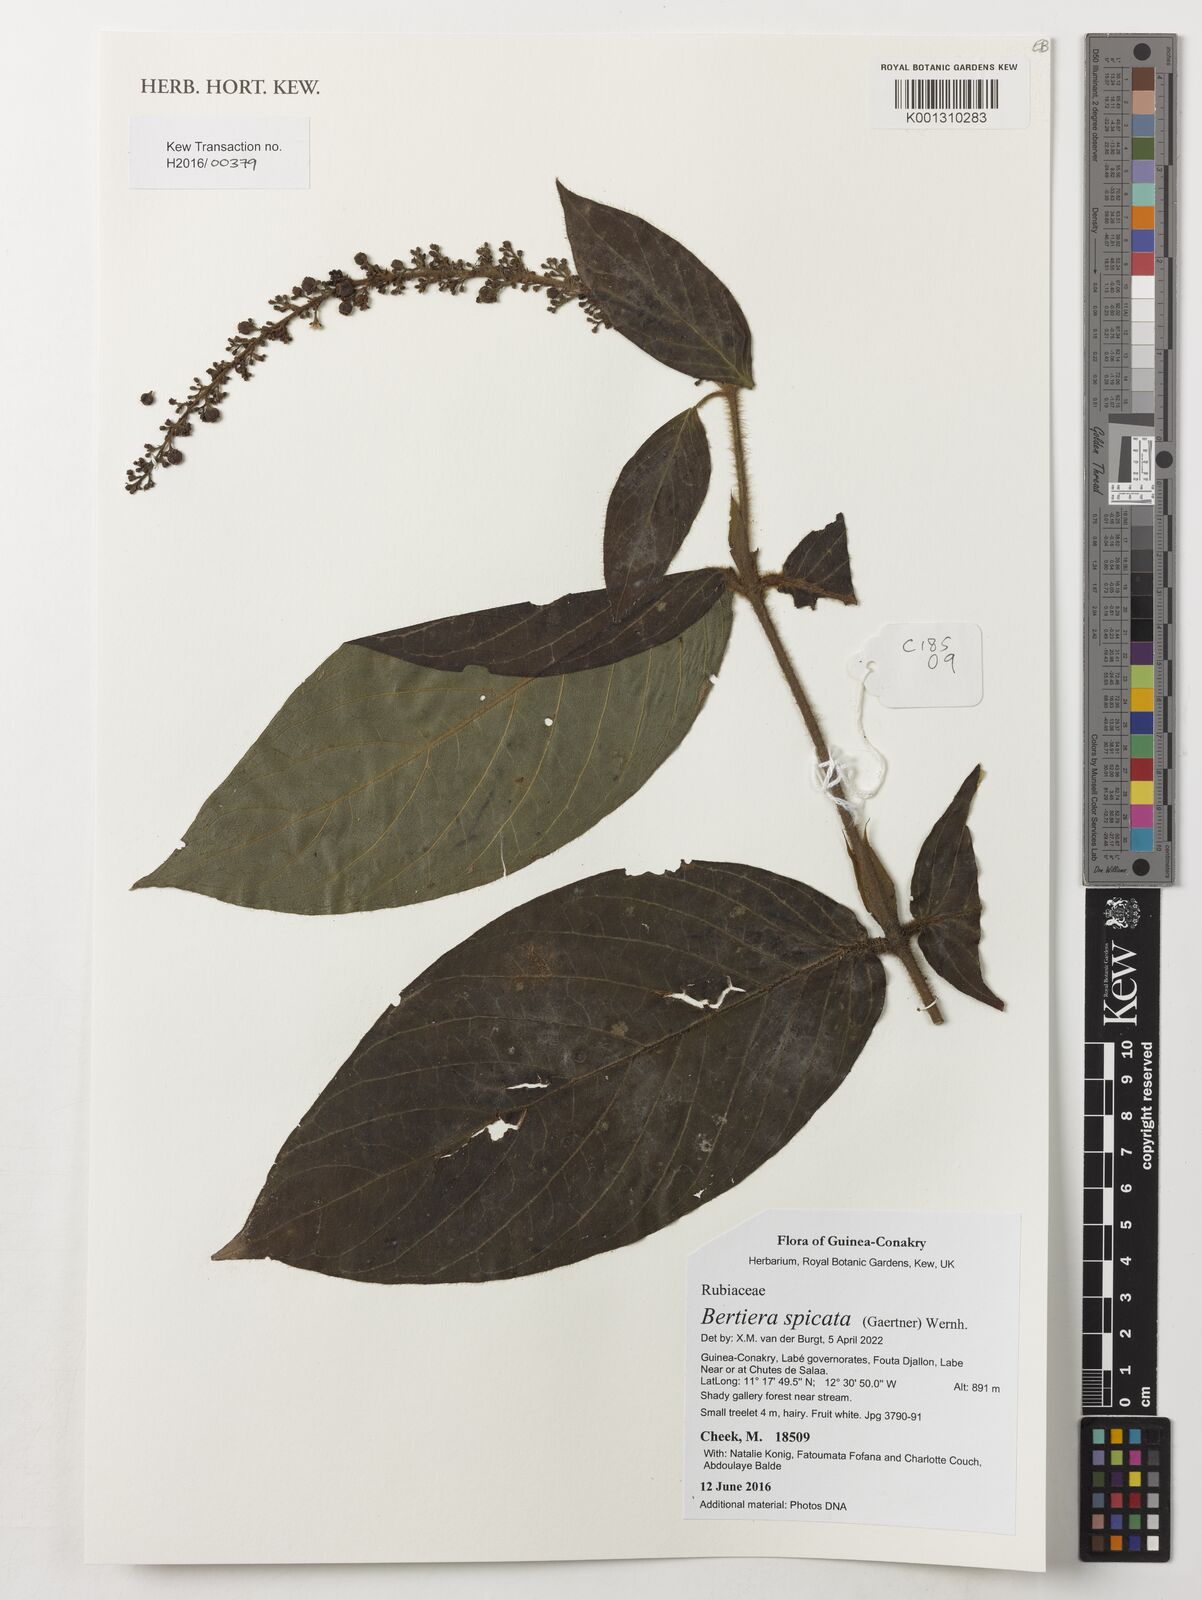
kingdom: Plantae
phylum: Tracheophyta
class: Magnoliopsida
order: Gentianales
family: Rubiaceae
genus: Bertiera
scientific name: Bertiera spicata
